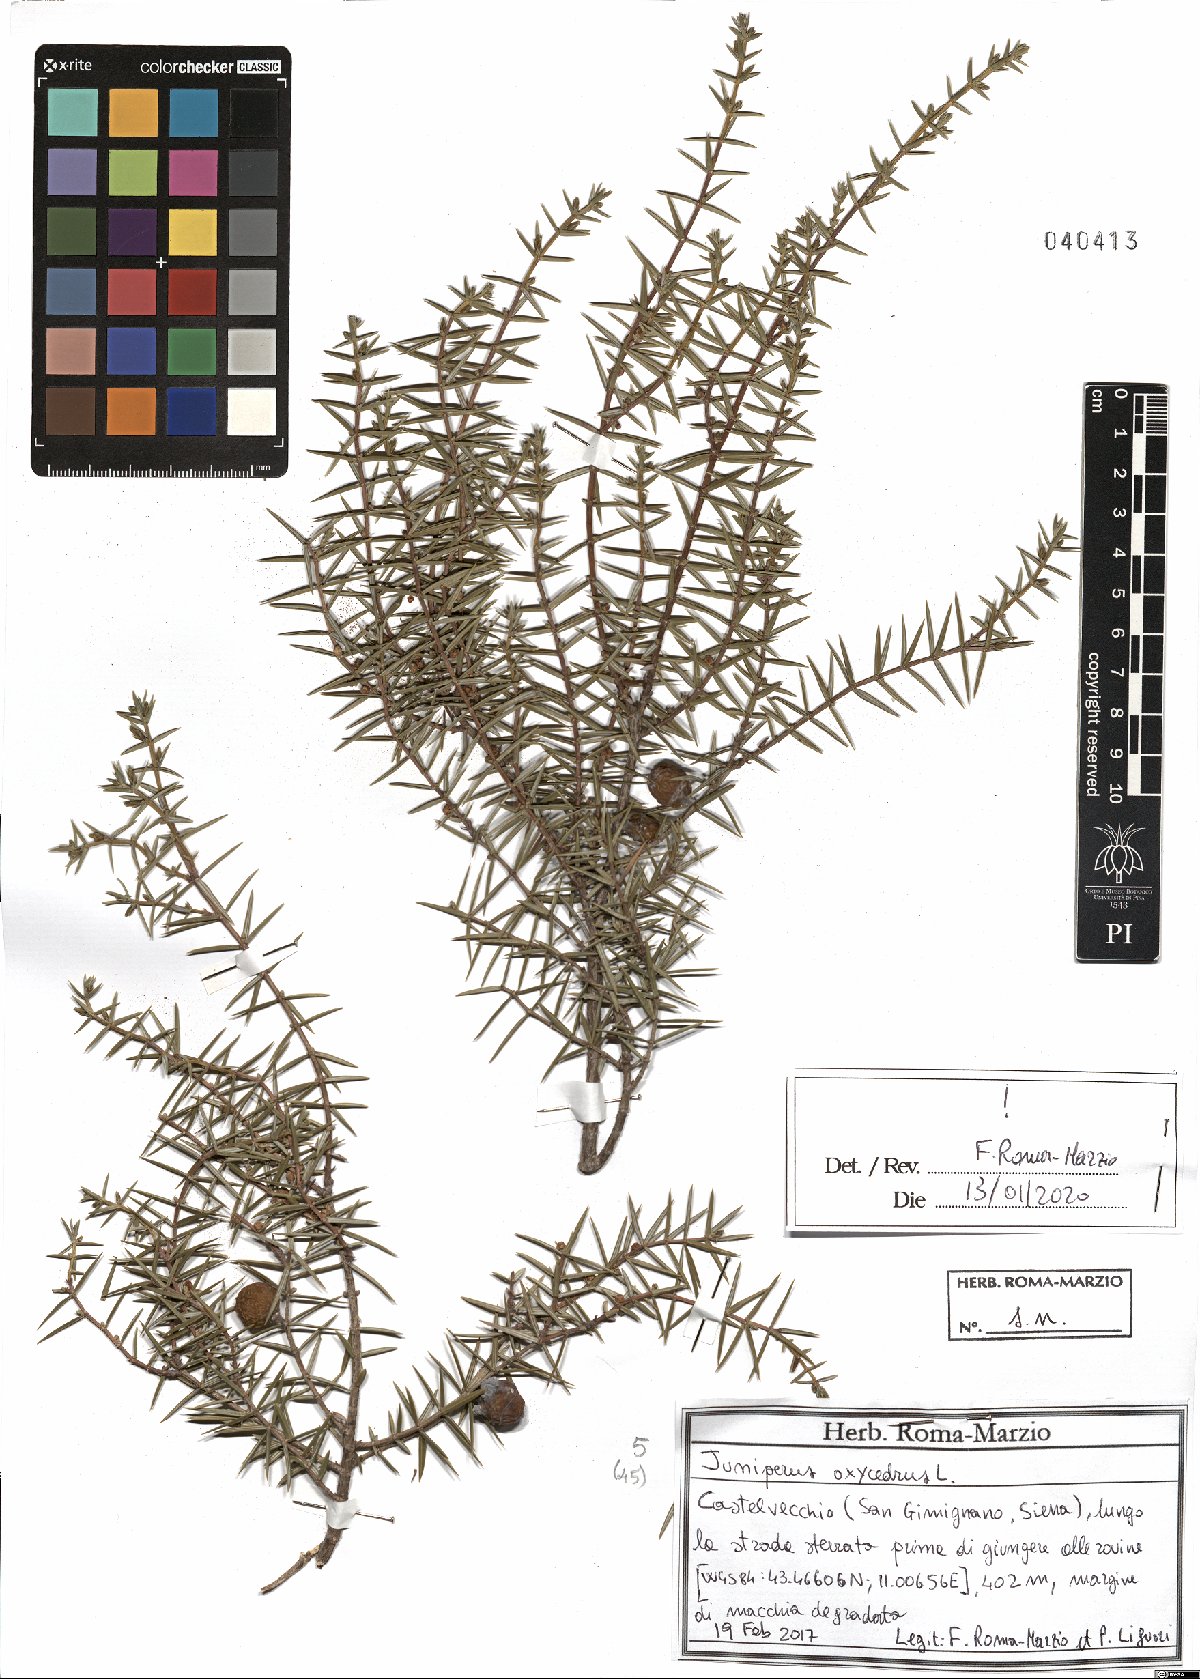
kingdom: Plantae
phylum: Tracheophyta
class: Pinopsida
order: Pinales
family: Cupressaceae
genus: Juniperus
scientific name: Juniperus oxycedrus
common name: Prickly juniper
